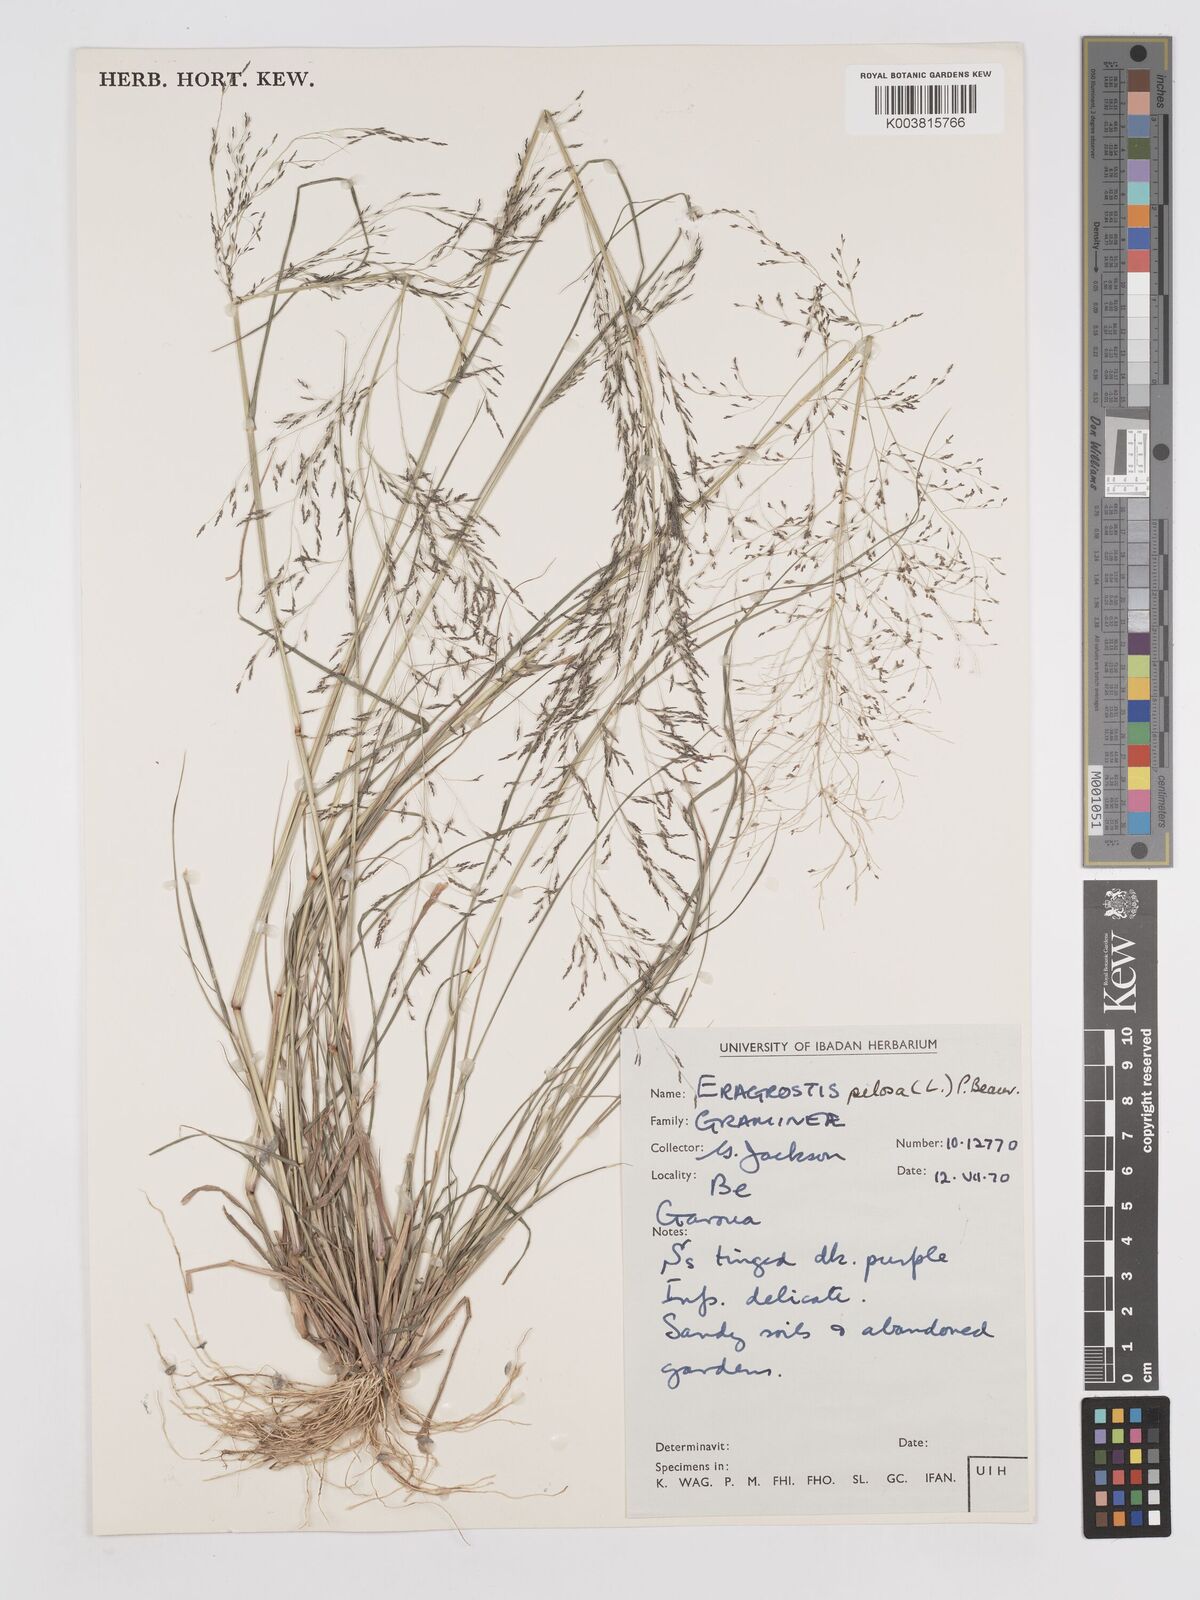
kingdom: Plantae
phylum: Tracheophyta
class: Liliopsida
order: Poales
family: Poaceae
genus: Eragrostis
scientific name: Eragrostis pilosa
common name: Indian lovegrass
